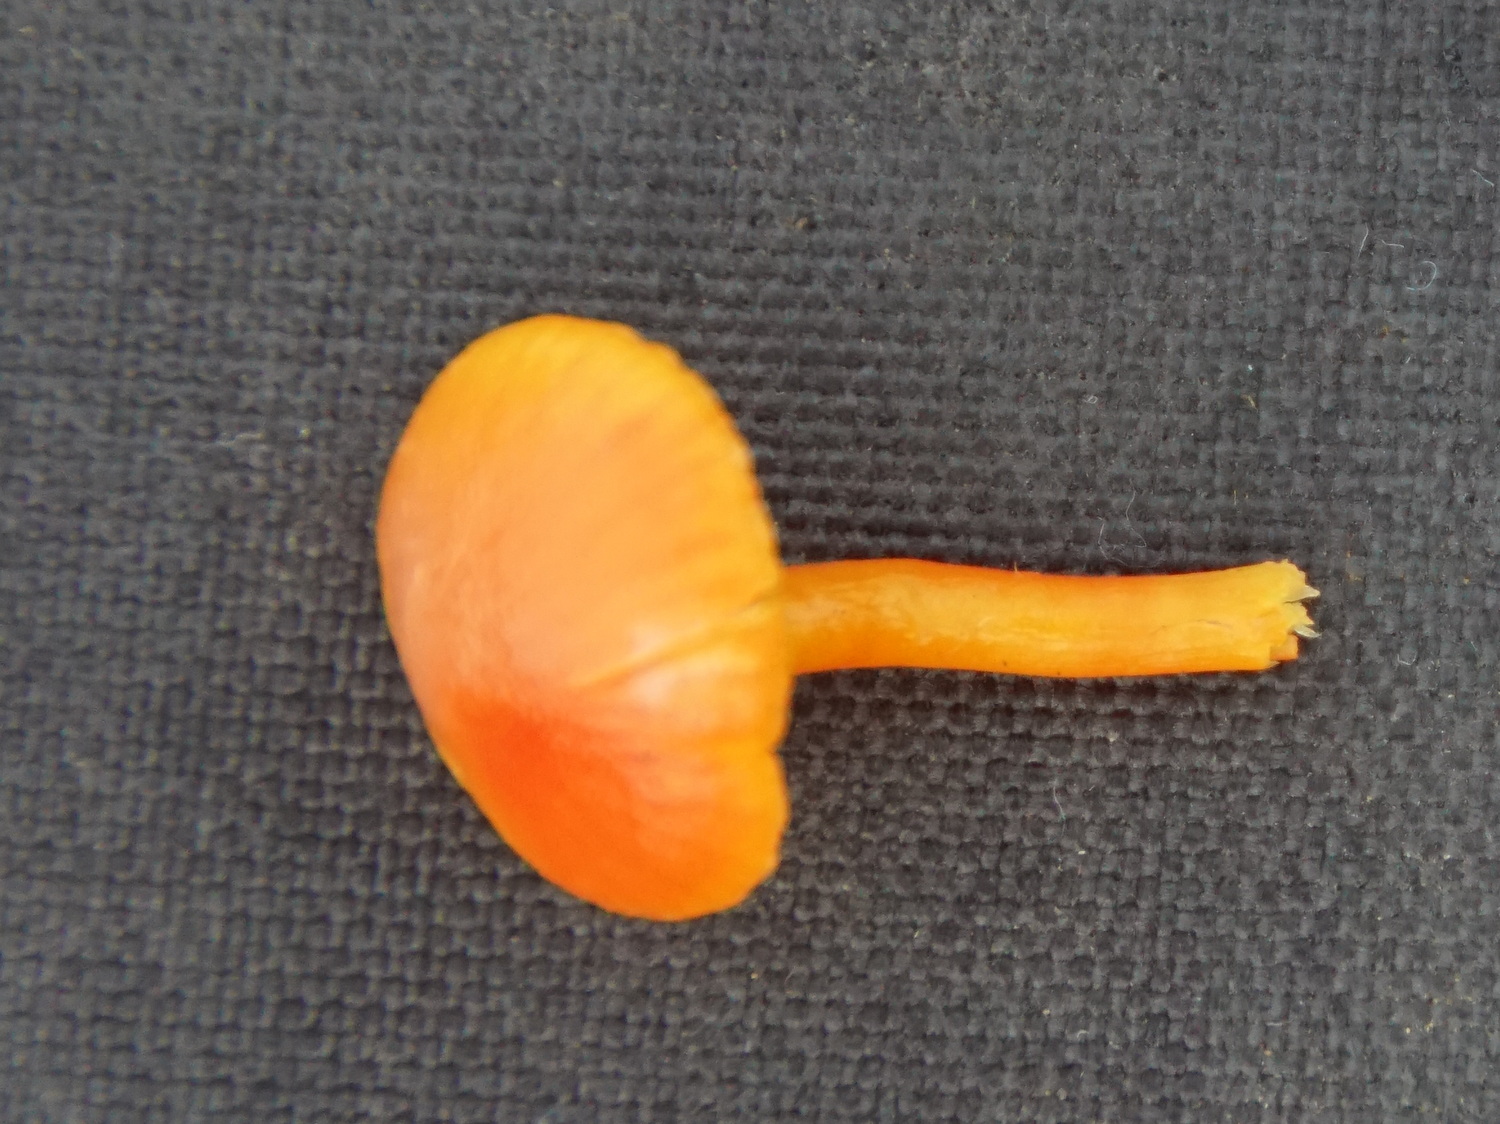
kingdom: Fungi
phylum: Basidiomycota
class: Agaricomycetes
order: Agaricales
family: Hygrophoraceae
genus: Hygrocybe
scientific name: Hygrocybe insipida
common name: liden vokshat
